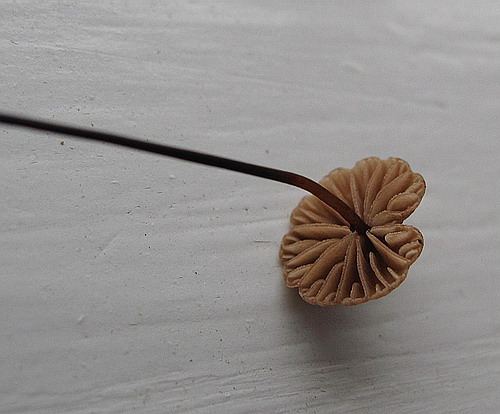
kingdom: Fungi
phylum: Basidiomycota
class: Agaricomycetes
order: Agaricales
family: Omphalotaceae
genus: Gymnopus
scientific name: Gymnopus androsaceus
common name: trådstokket fladhat
